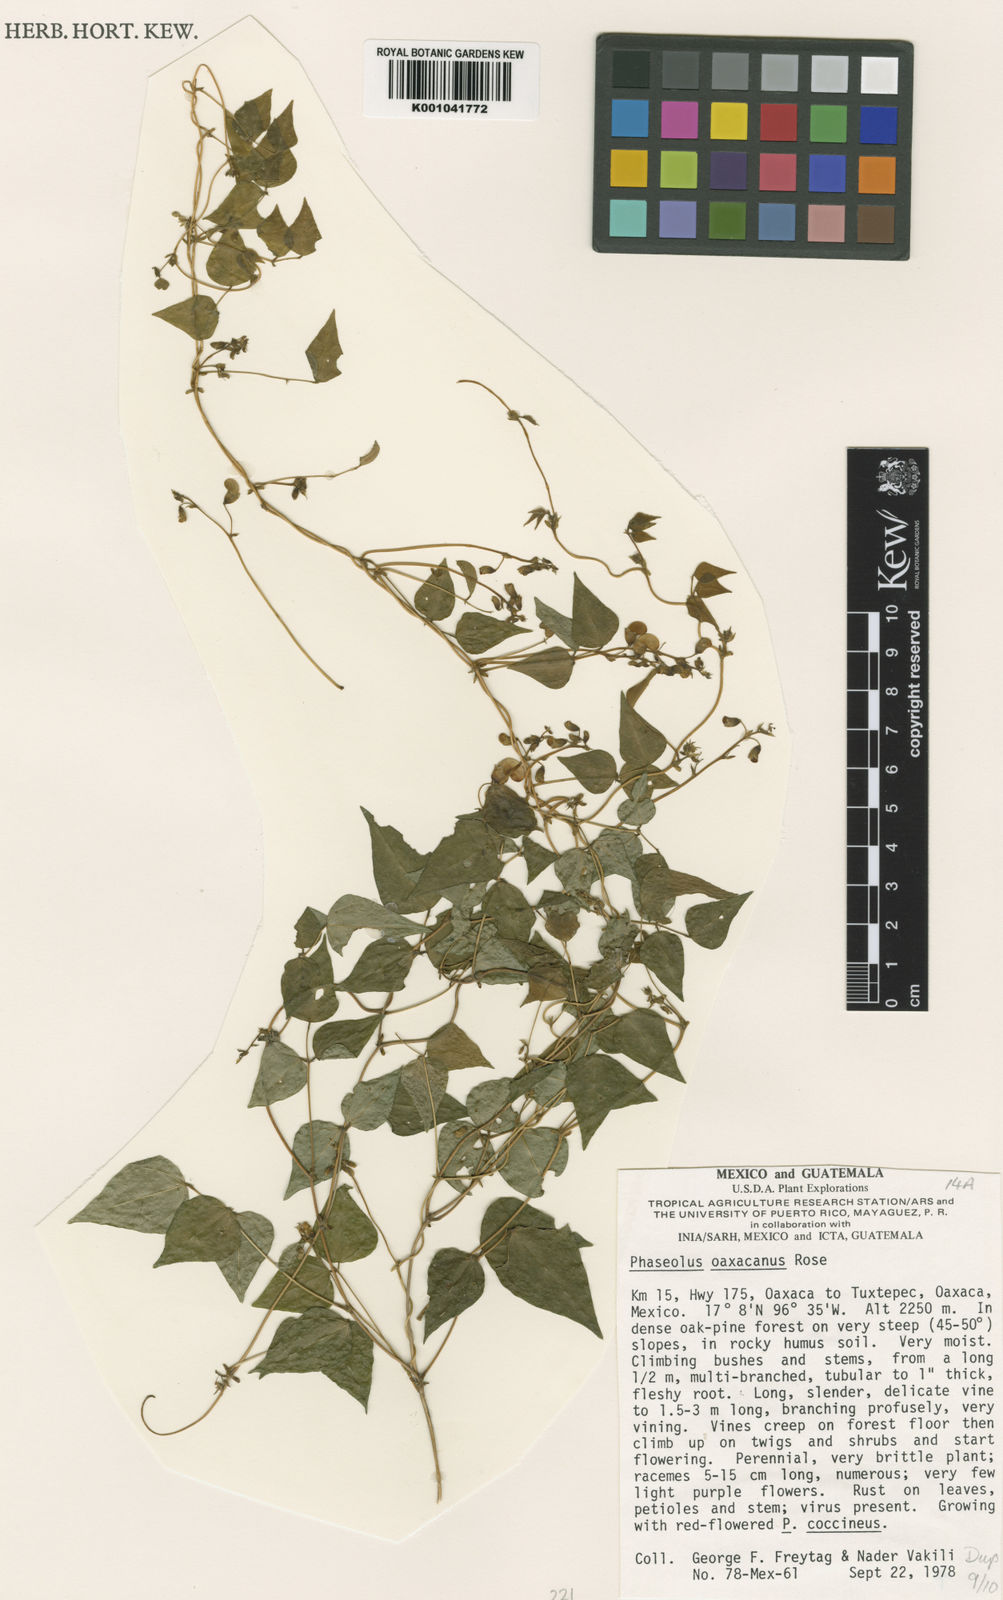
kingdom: Plantae
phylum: Tracheophyta
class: Magnoliopsida
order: Fabales
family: Fabaceae
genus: Phaseolus
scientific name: Phaseolus oaxacanus
